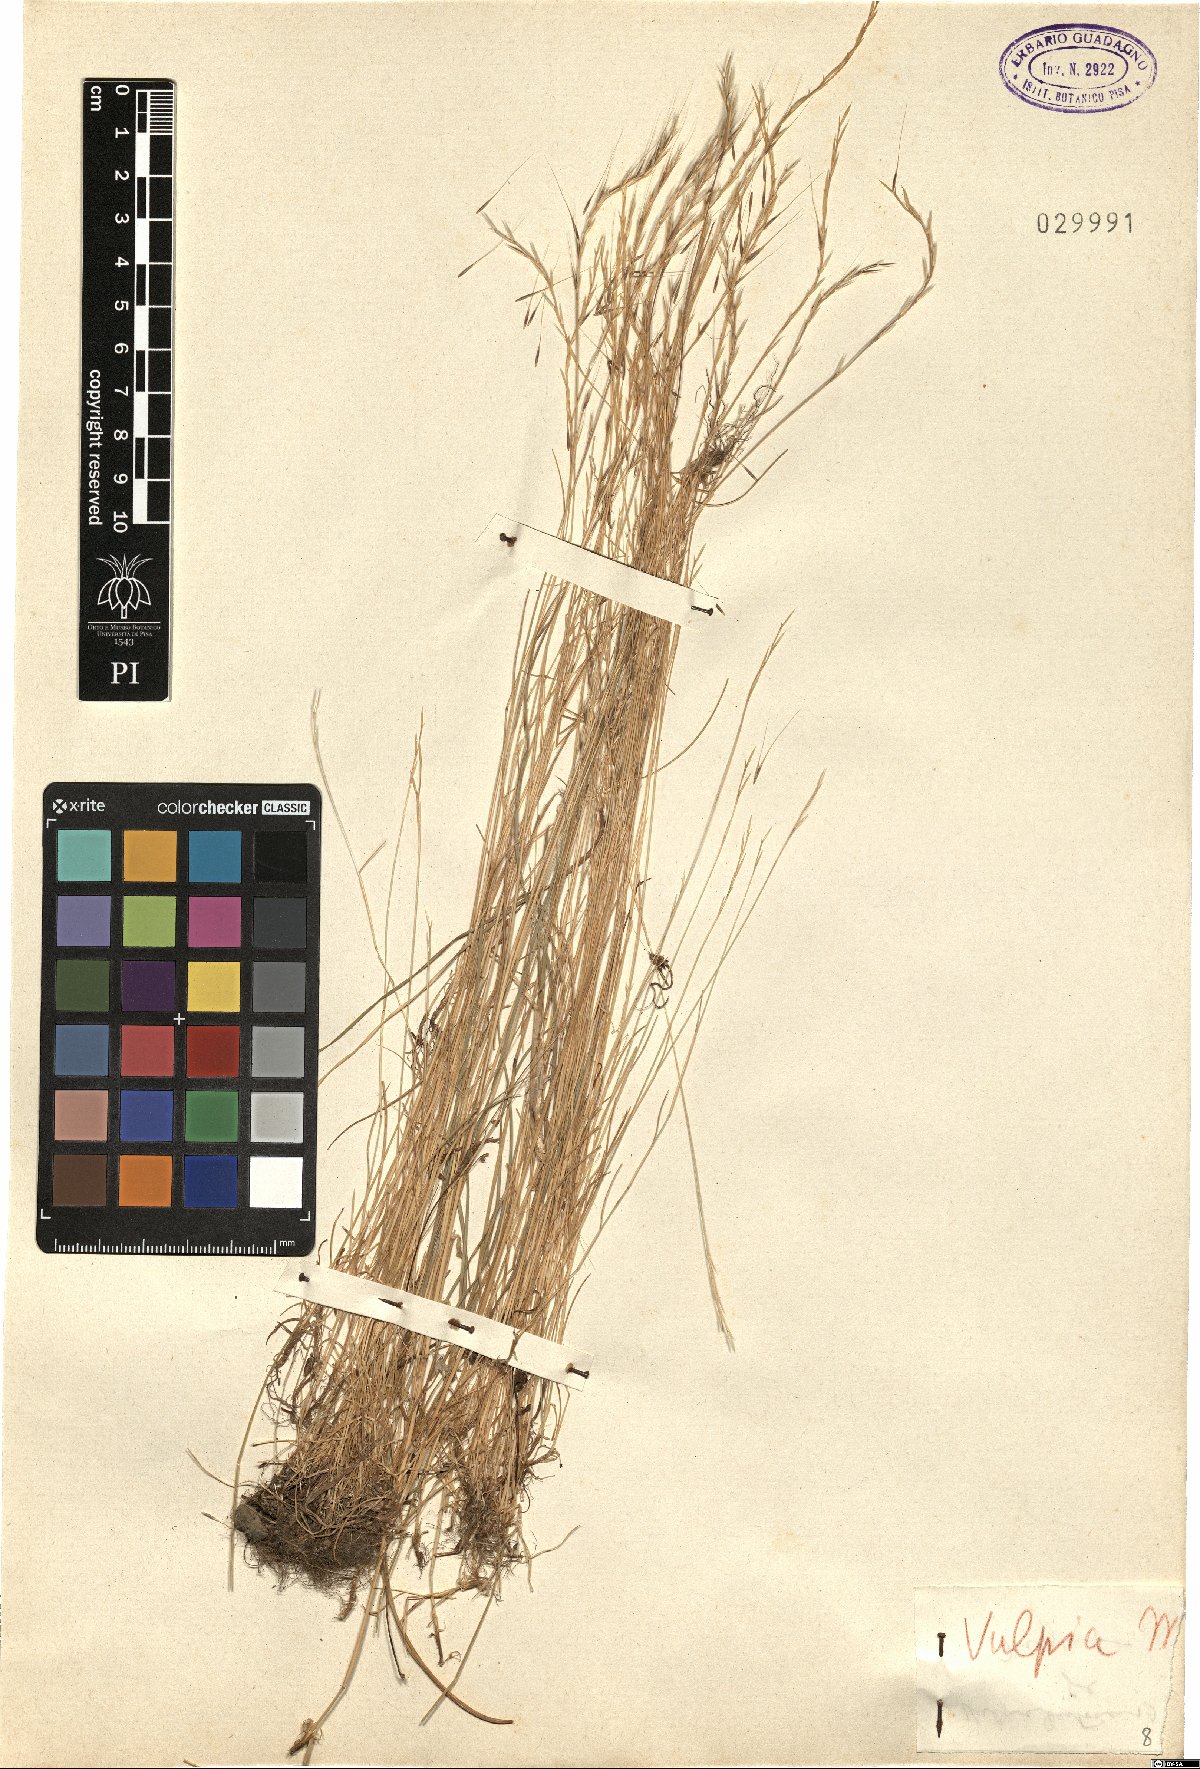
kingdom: Plantae
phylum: Tracheophyta
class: Liliopsida
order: Poales
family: Poaceae
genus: Festuca
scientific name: Festuca
